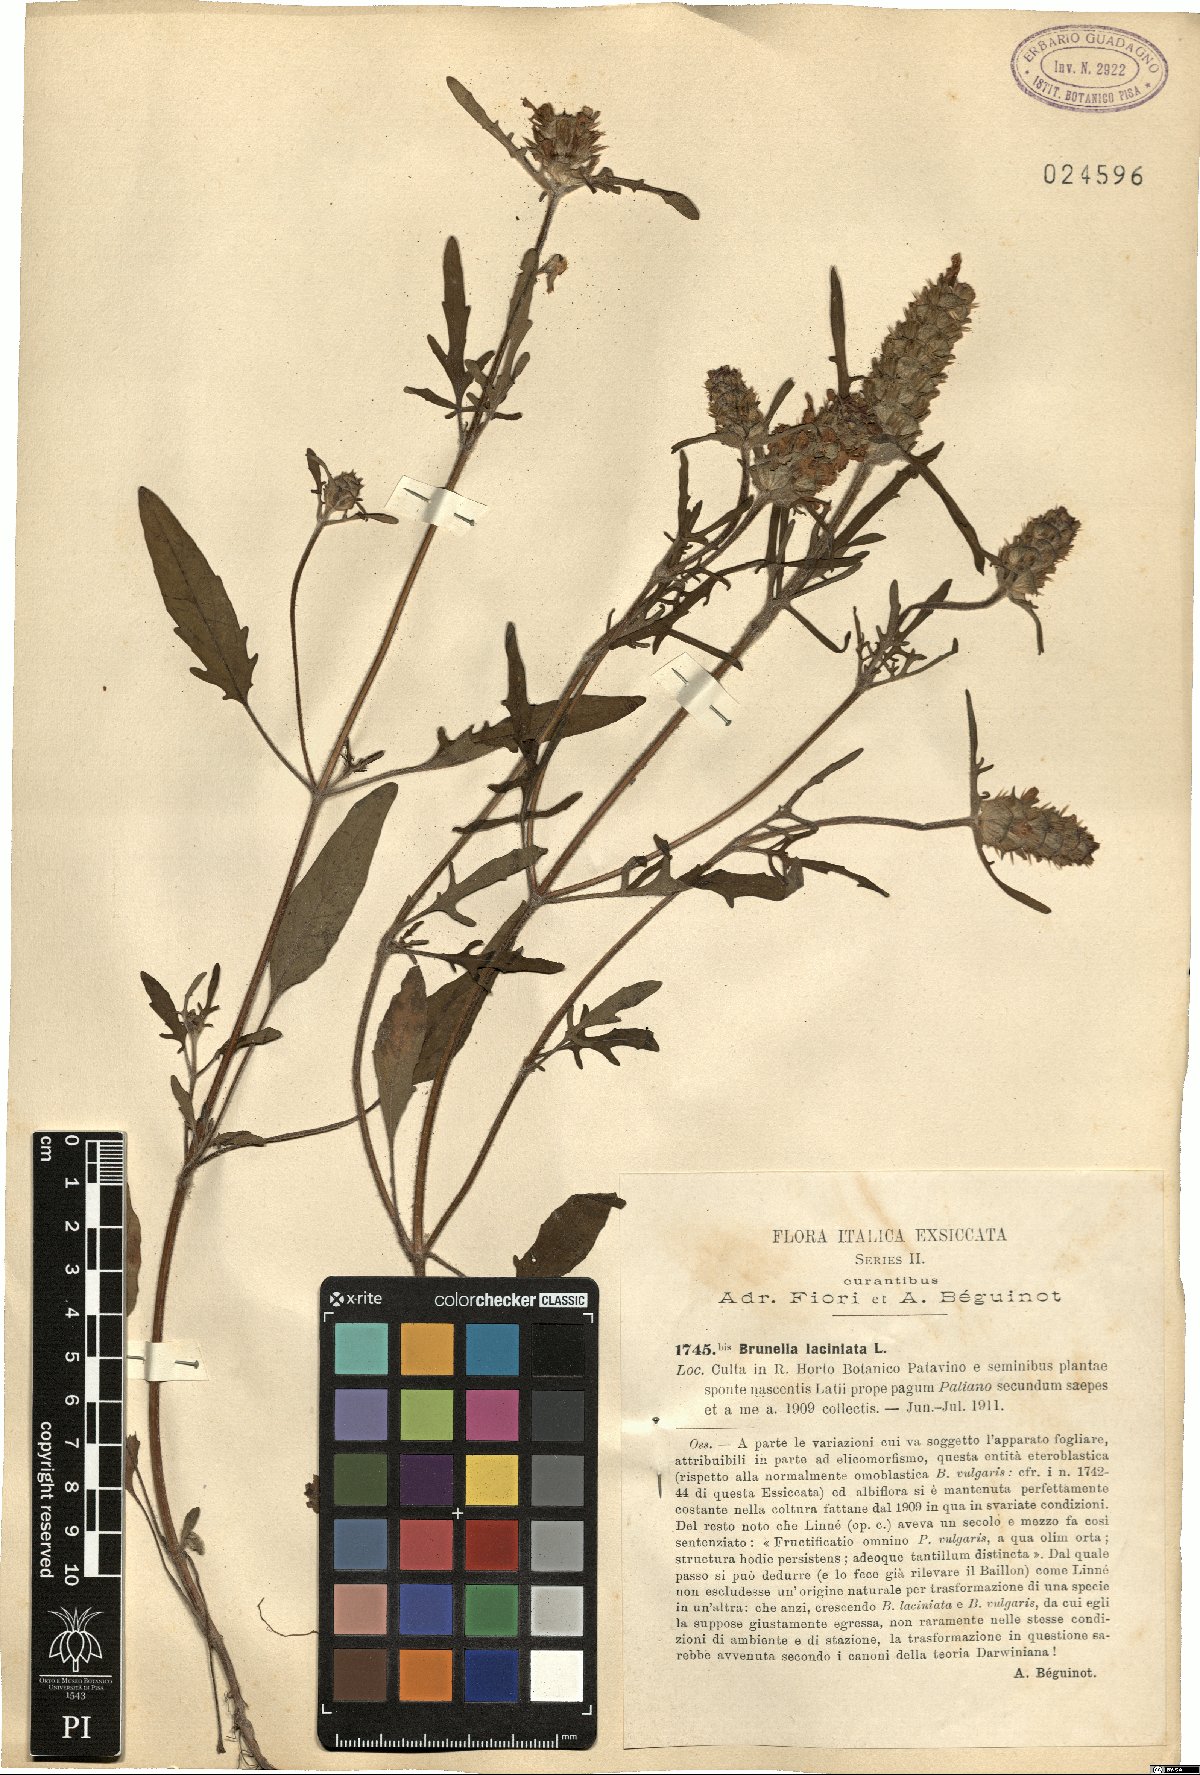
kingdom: Plantae
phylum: Tracheophyta
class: Magnoliopsida
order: Lamiales
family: Lamiaceae
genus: Prunella
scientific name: Prunella laciniata
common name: Cut-leaved selfheal
